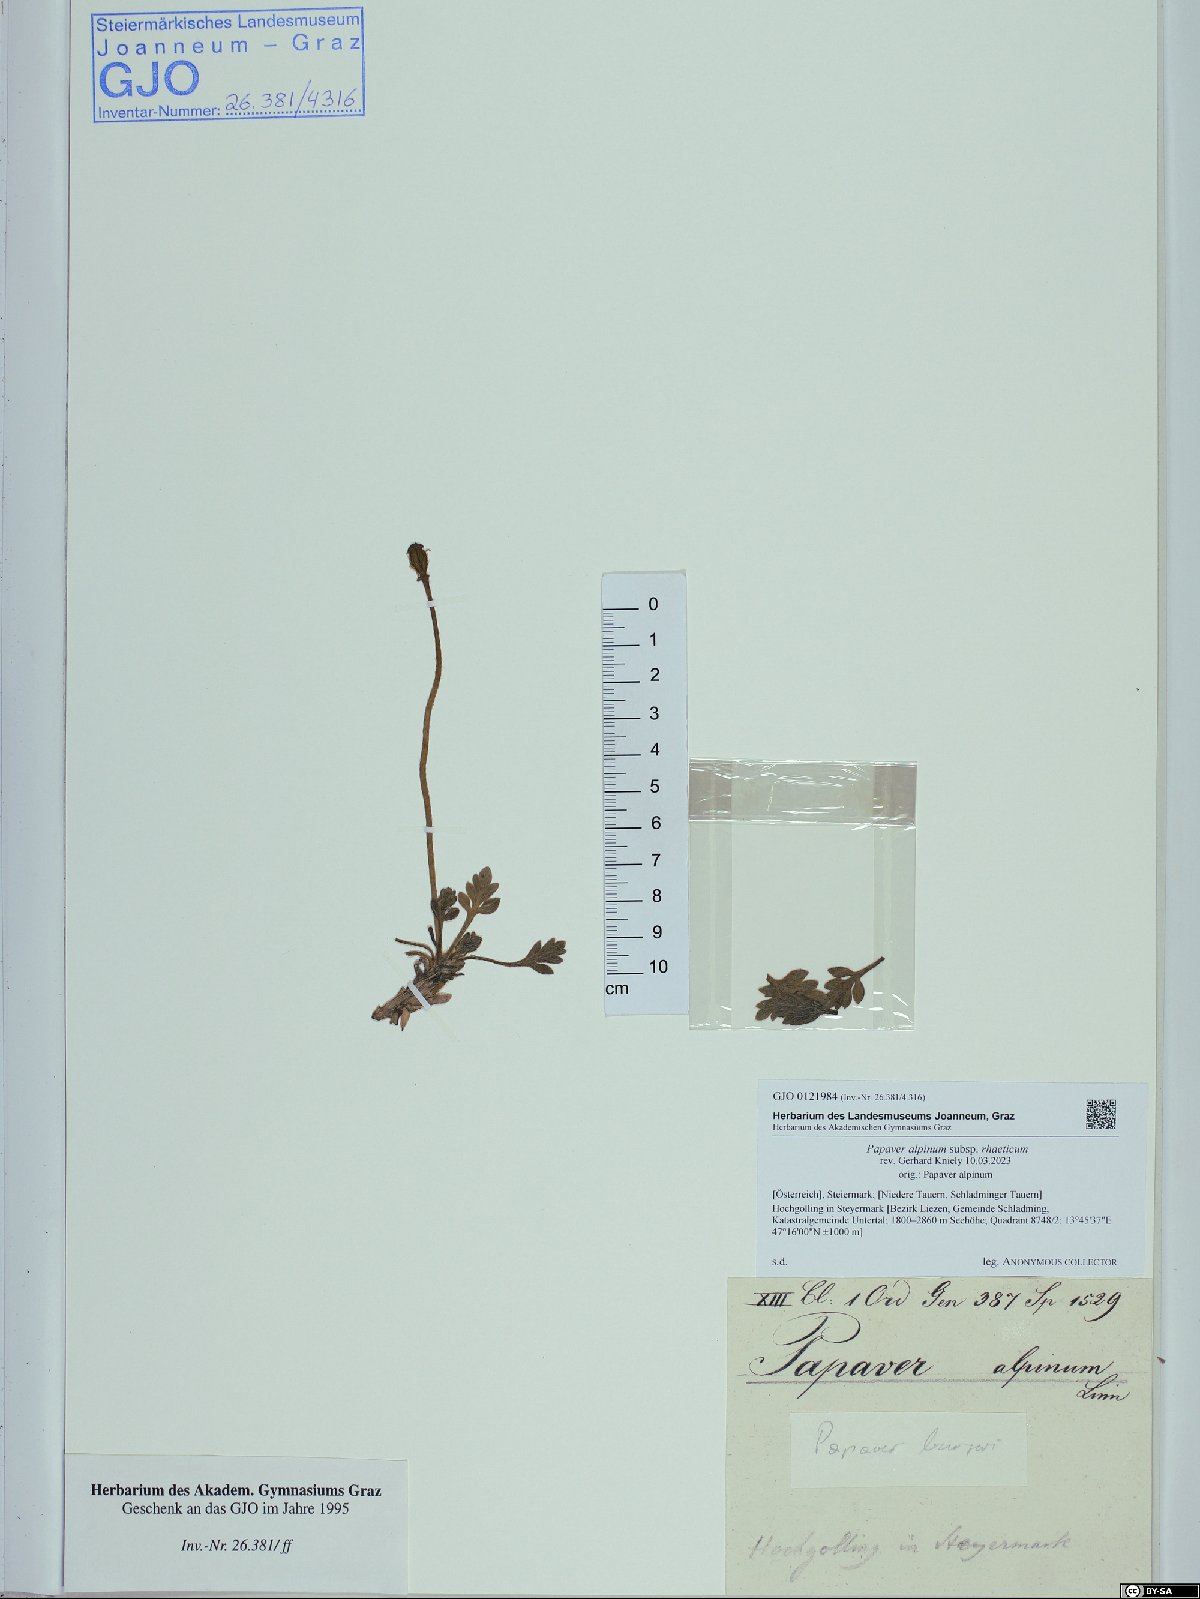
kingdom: Plantae
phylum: Tracheophyta
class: Magnoliopsida
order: Ranunculales
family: Papaveraceae
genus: Papaver
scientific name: Papaver alpinum
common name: Austrian poppy
